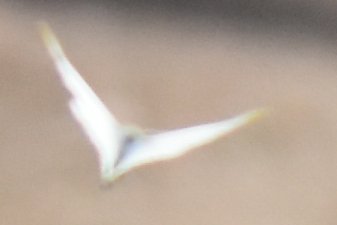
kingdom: Animalia
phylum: Arthropoda
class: Insecta
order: Lepidoptera
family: Pieridae
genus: Pieris
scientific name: Pieris rapae
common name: Cabbage White
